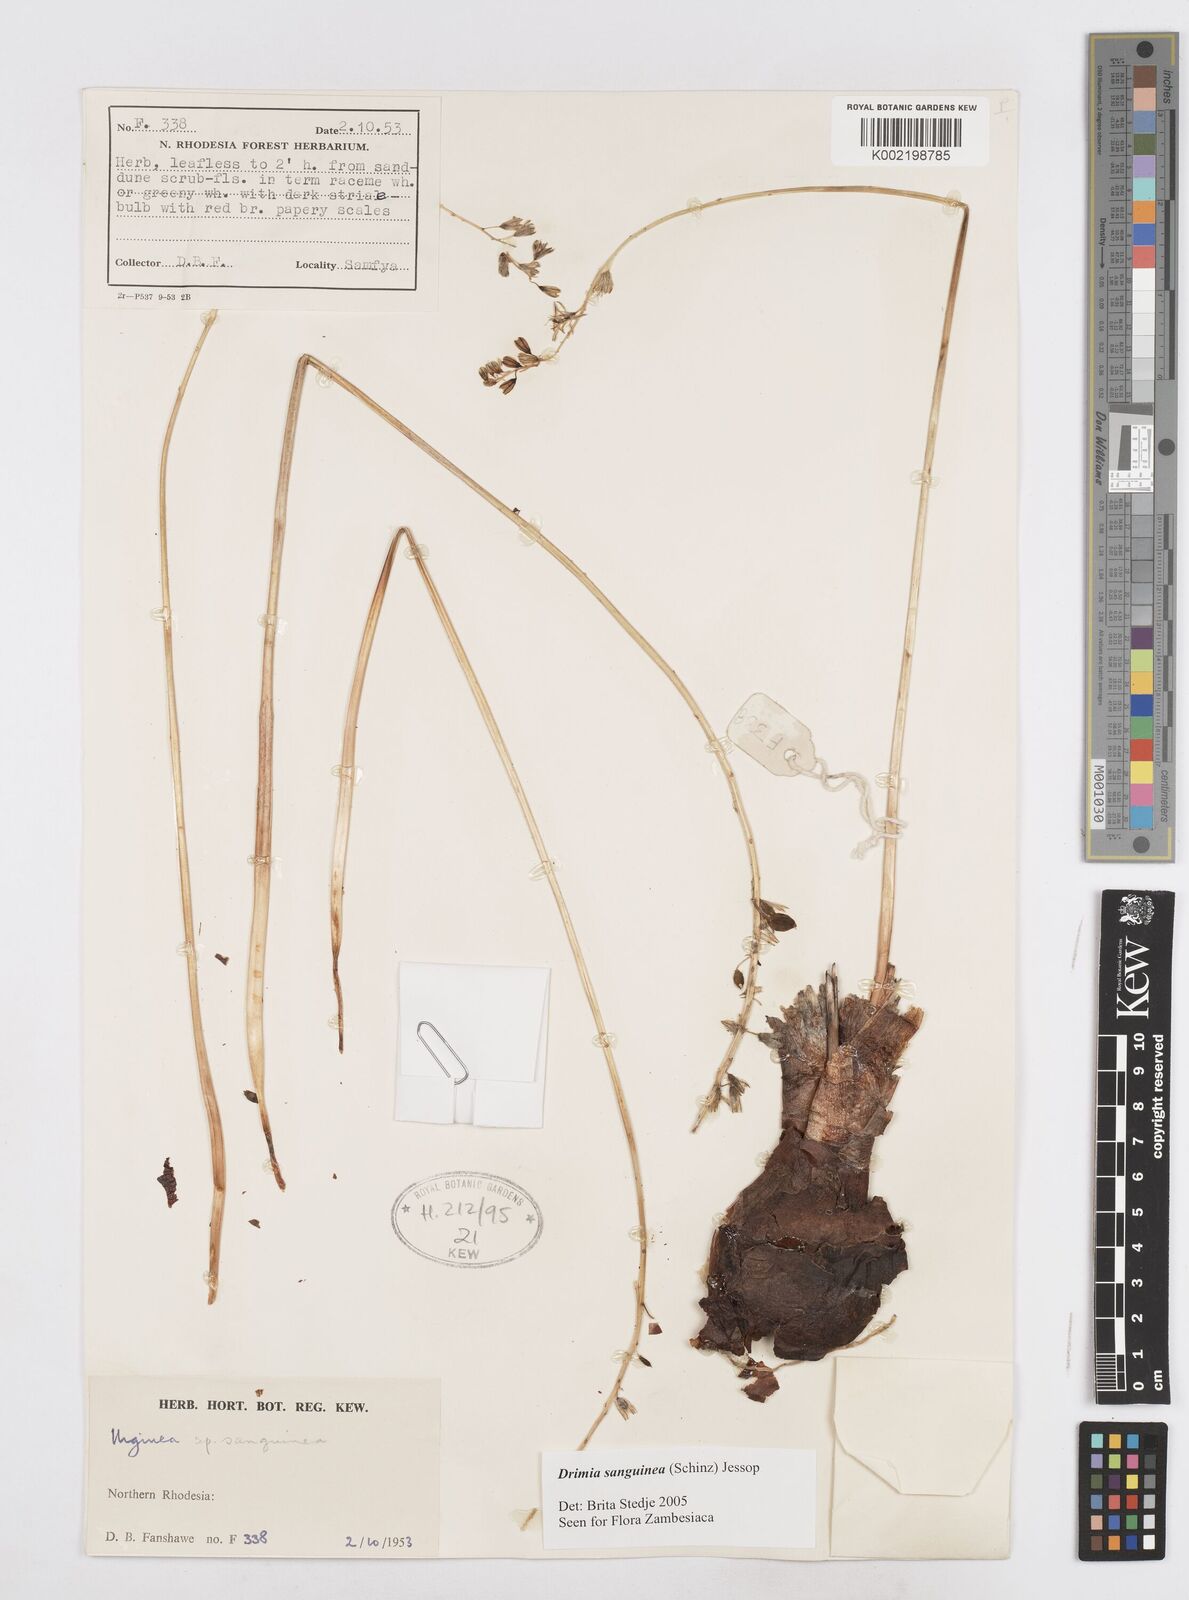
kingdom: Plantae
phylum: Tracheophyta
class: Liliopsida
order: Asparagales
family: Asparagaceae
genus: Drimia
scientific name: Drimia sanguinea
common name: Transvaal slangkop
